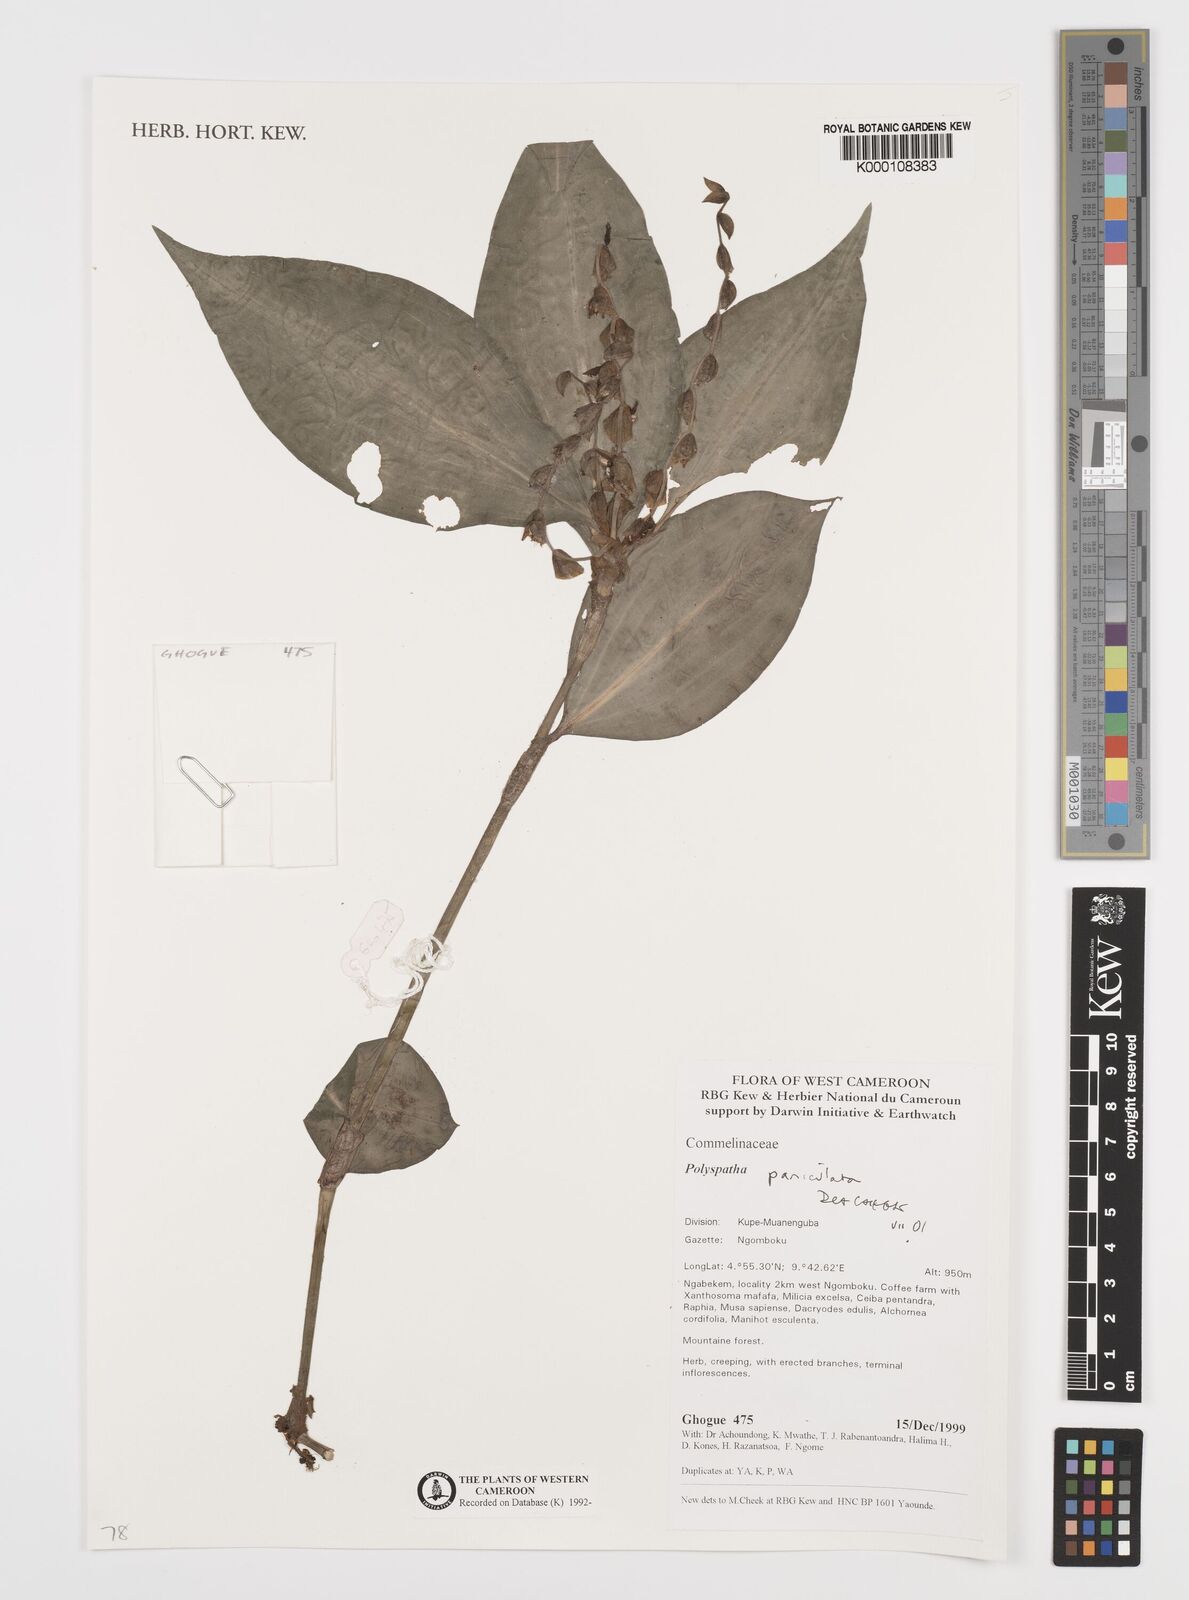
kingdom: Plantae
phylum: Tracheophyta
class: Liliopsida
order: Commelinales
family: Commelinaceae
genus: Polyspatha
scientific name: Polyspatha paniculata
